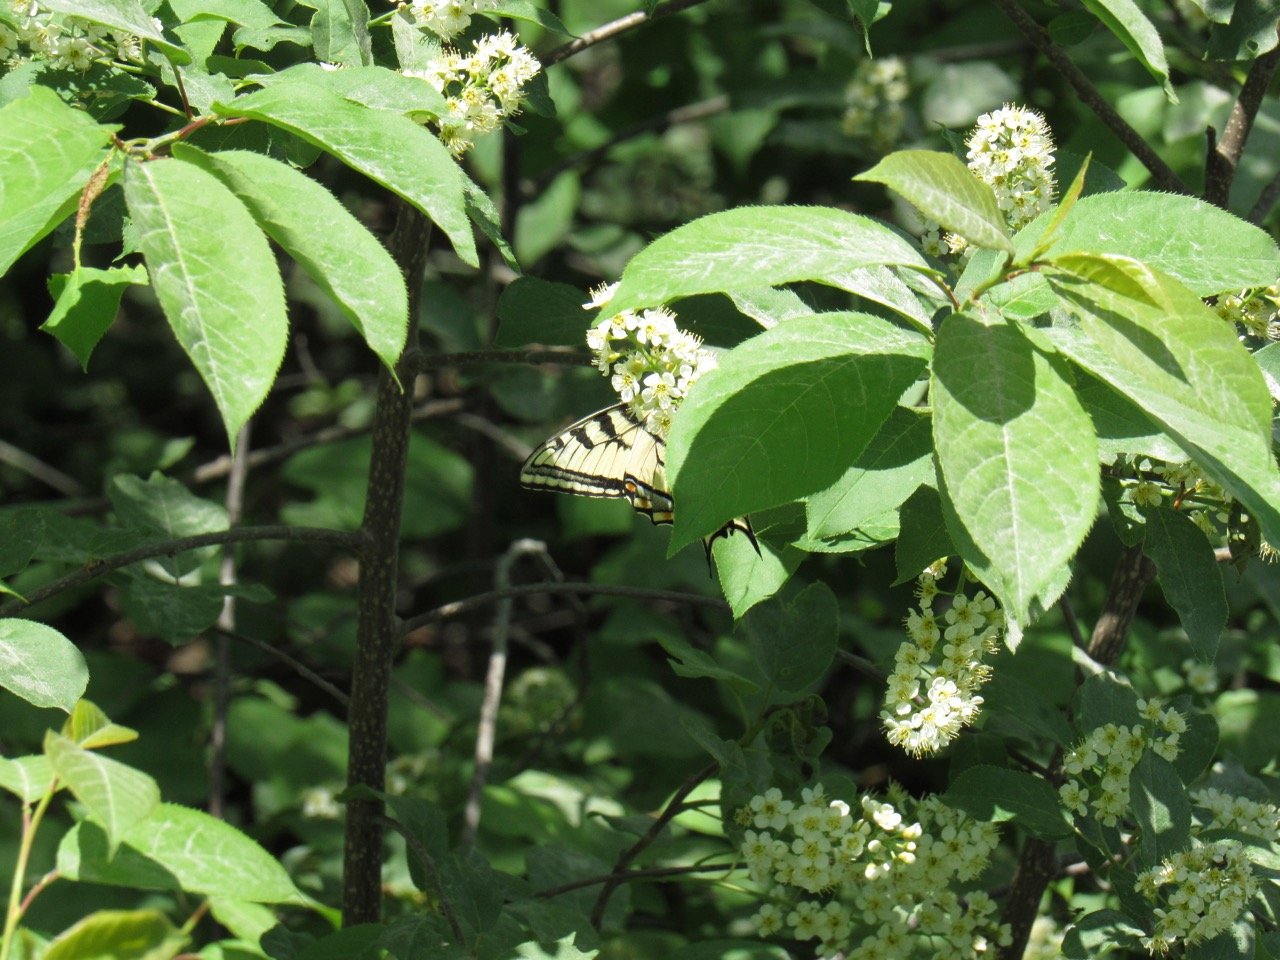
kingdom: Animalia
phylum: Arthropoda
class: Insecta
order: Lepidoptera
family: Papilionidae
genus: Pterourus
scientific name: Pterourus canadensis
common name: Canadian Tiger Swallowtail
